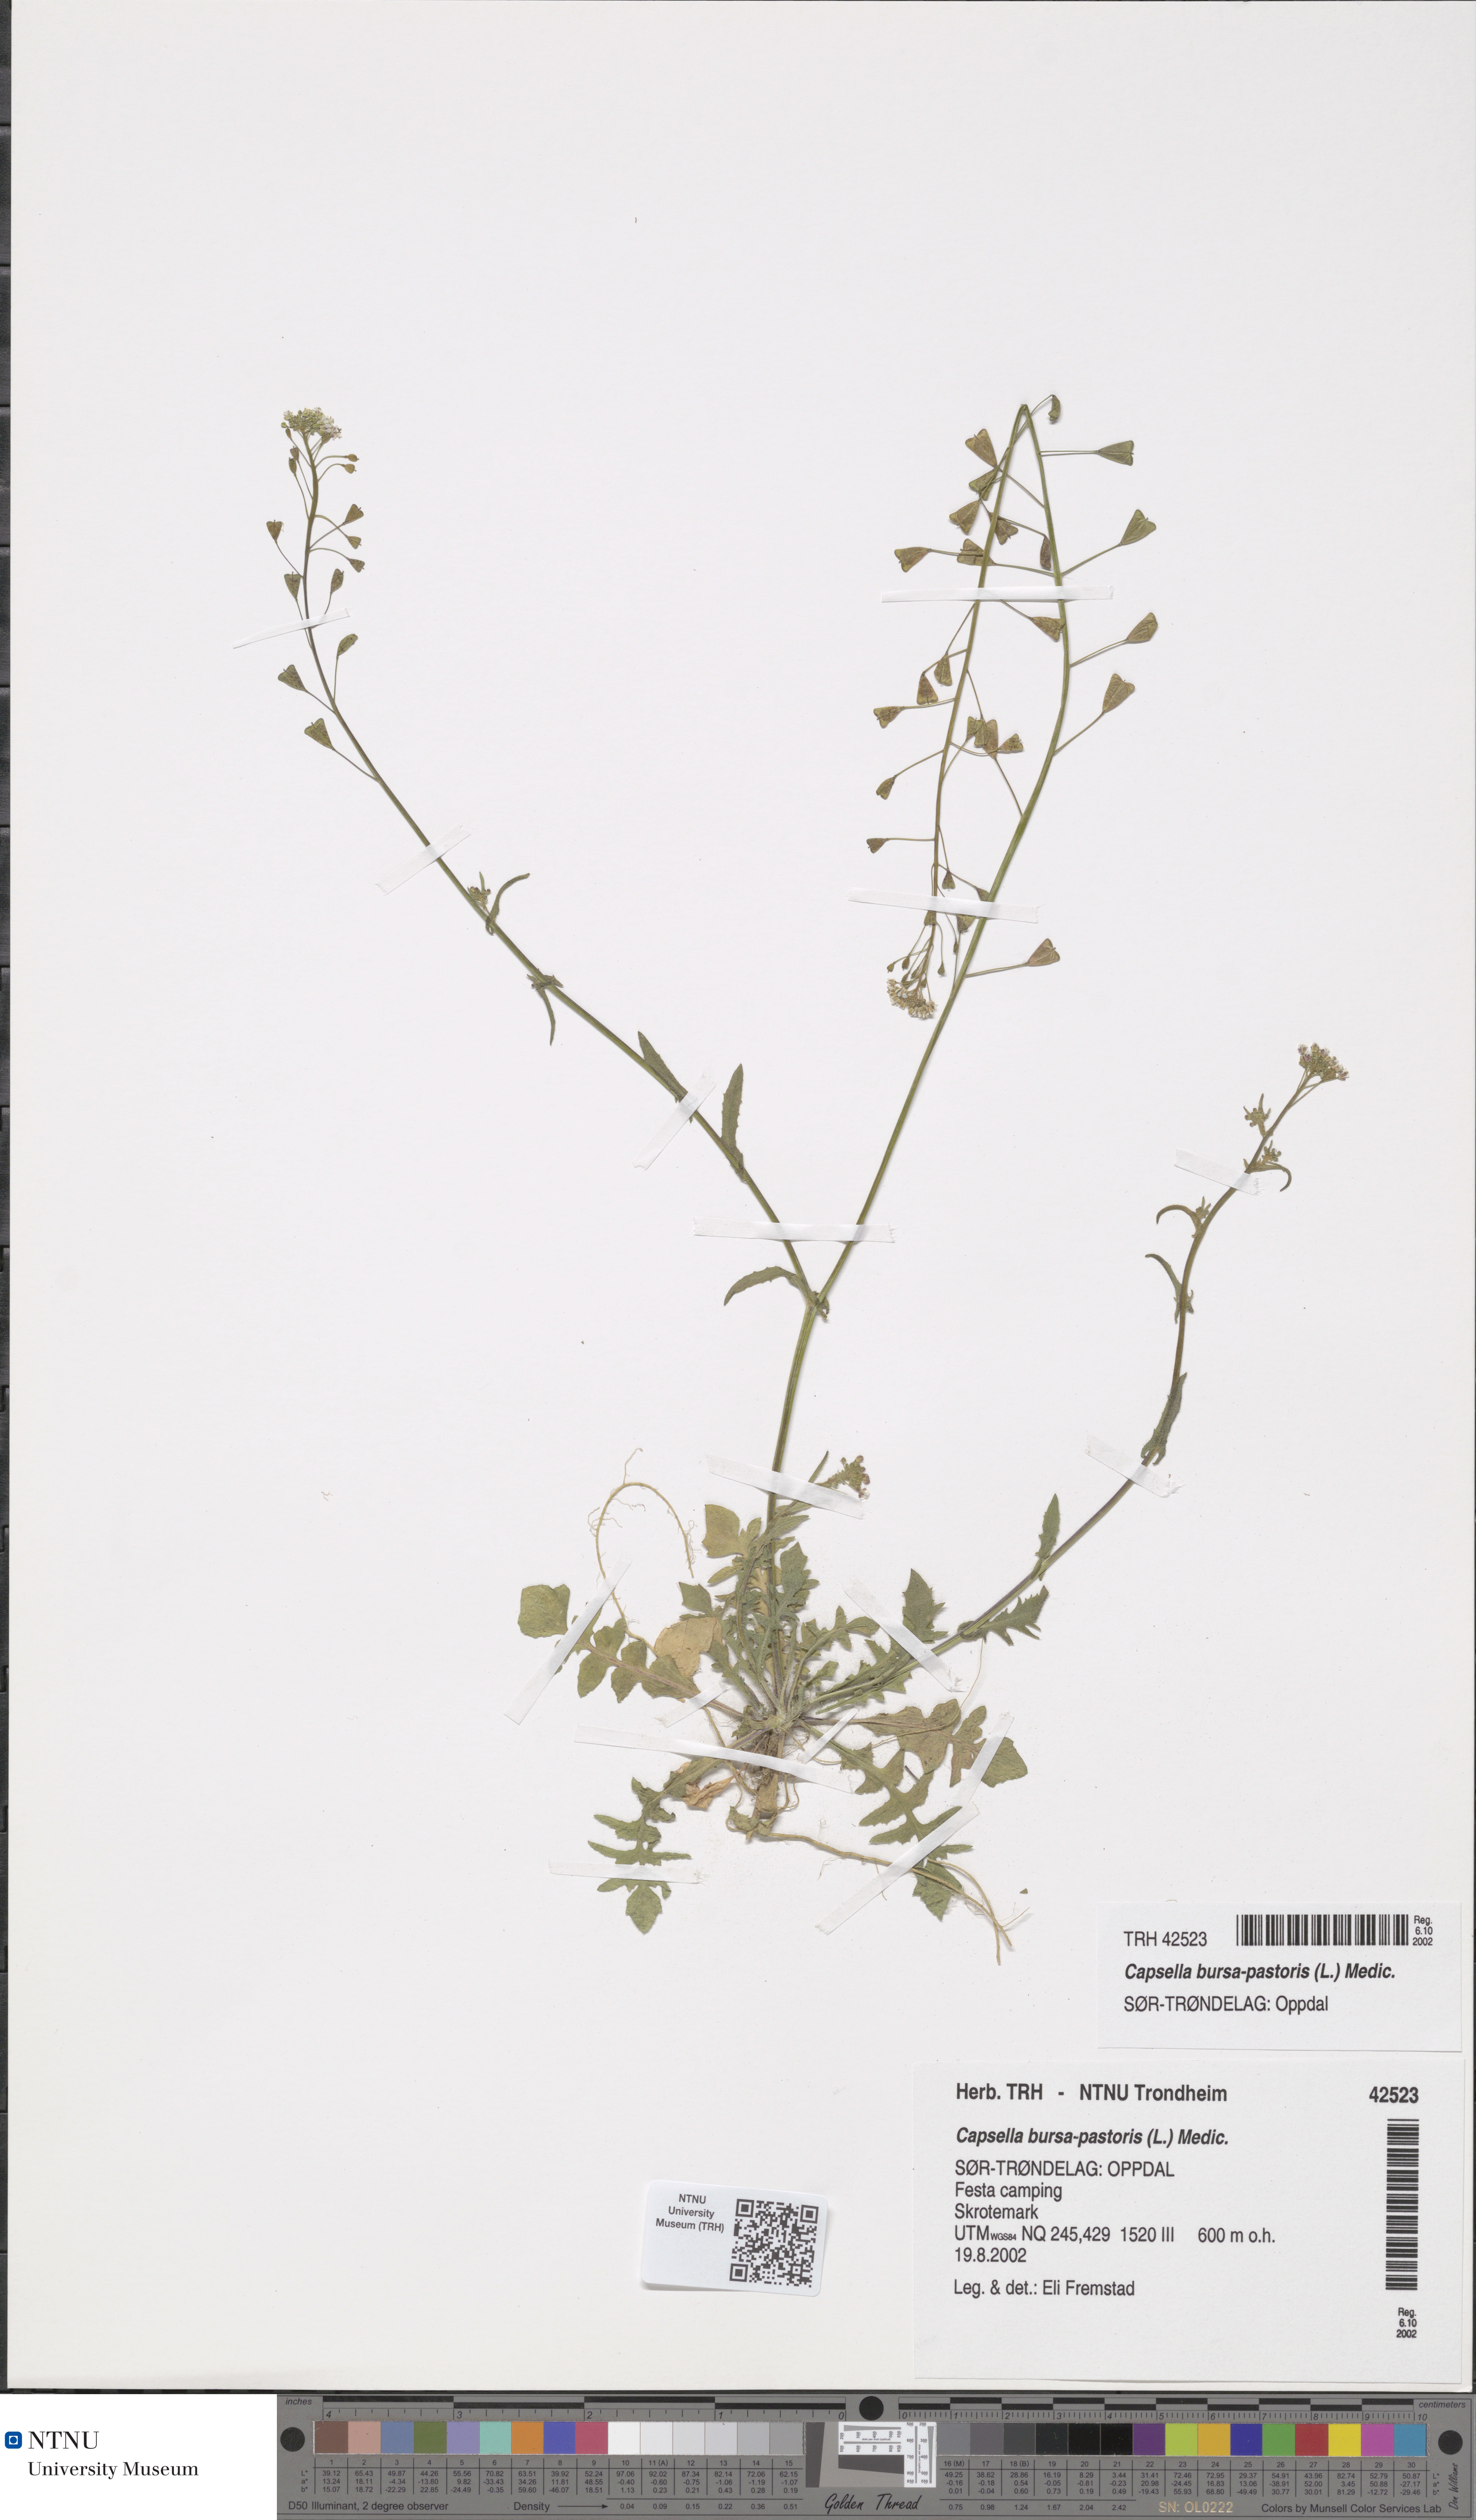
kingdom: Plantae
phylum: Tracheophyta
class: Magnoliopsida
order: Brassicales
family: Brassicaceae
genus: Capsella
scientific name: Capsella bursa-pastoris
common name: Shepherd's purse
